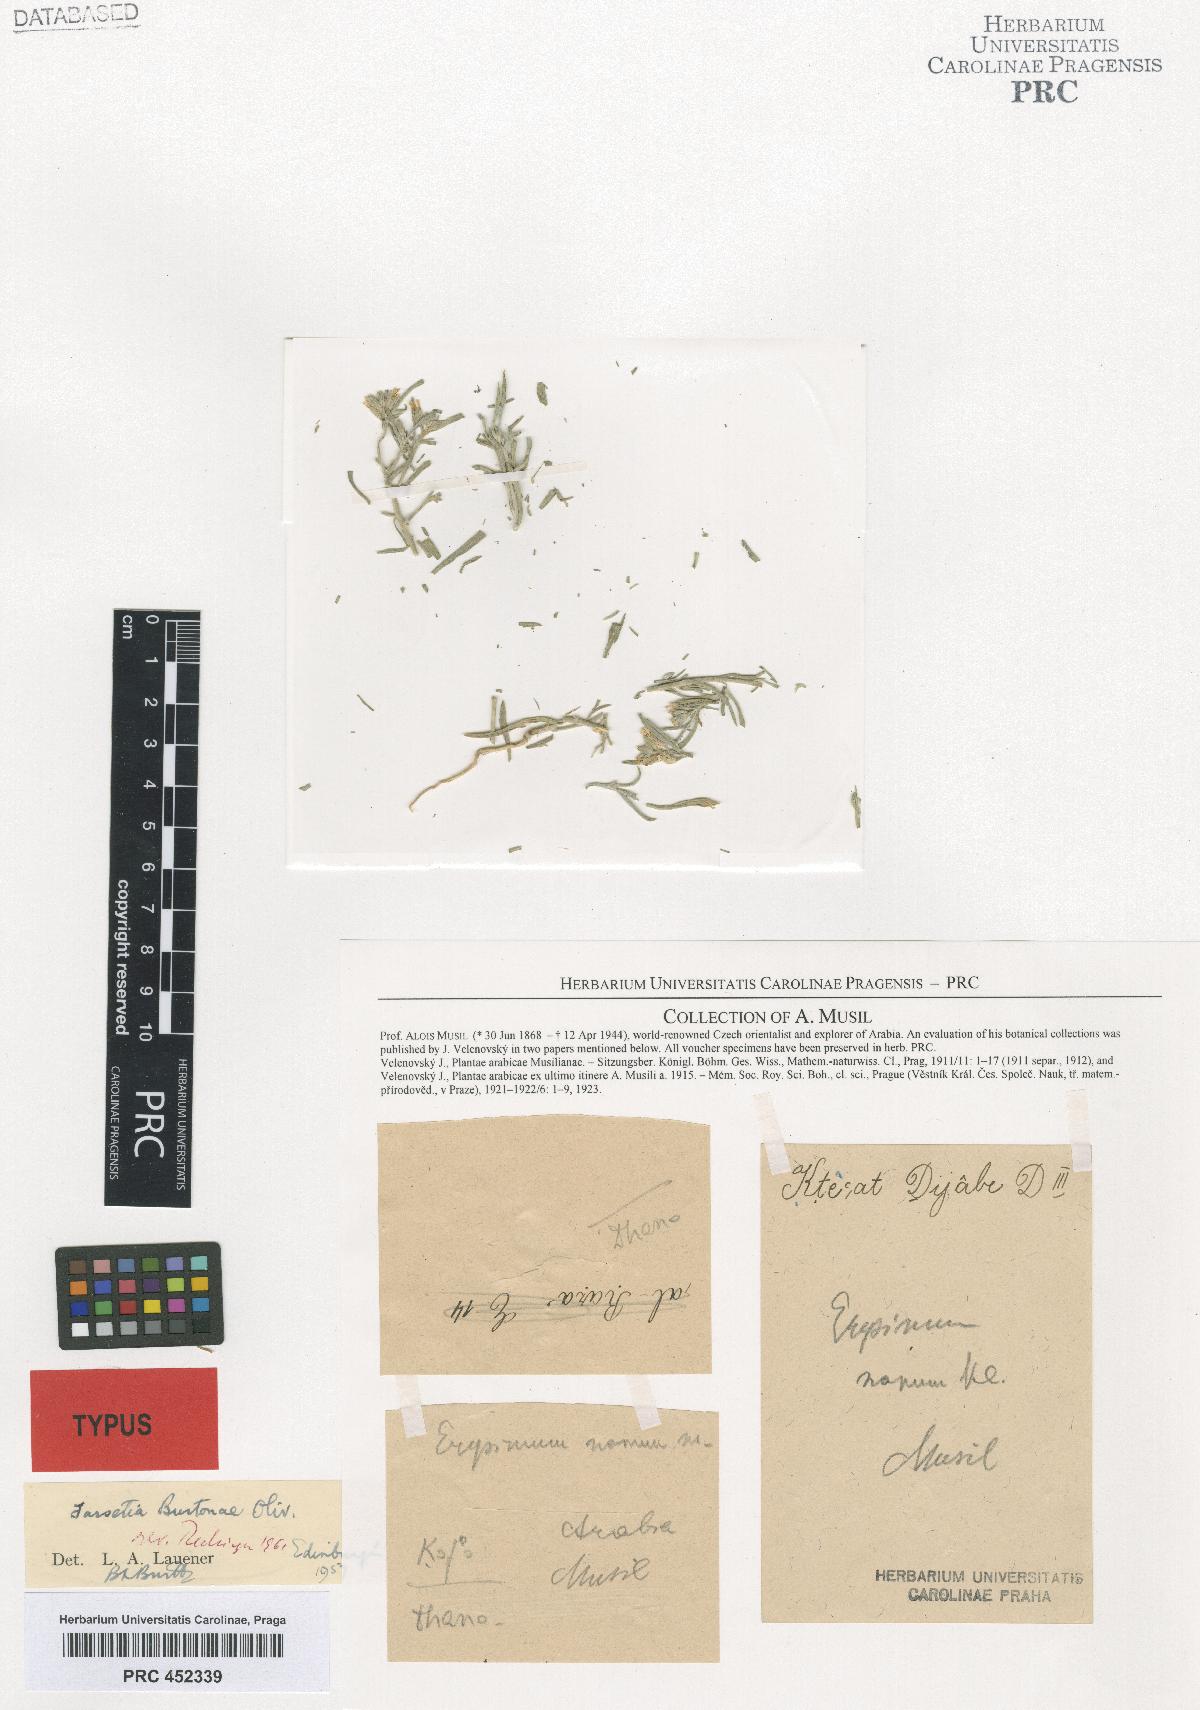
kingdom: Plantae
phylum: Tracheophyta
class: Magnoliopsida
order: Brassicales
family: Brassicaceae
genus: Erysimum
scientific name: Erysimum nanum
